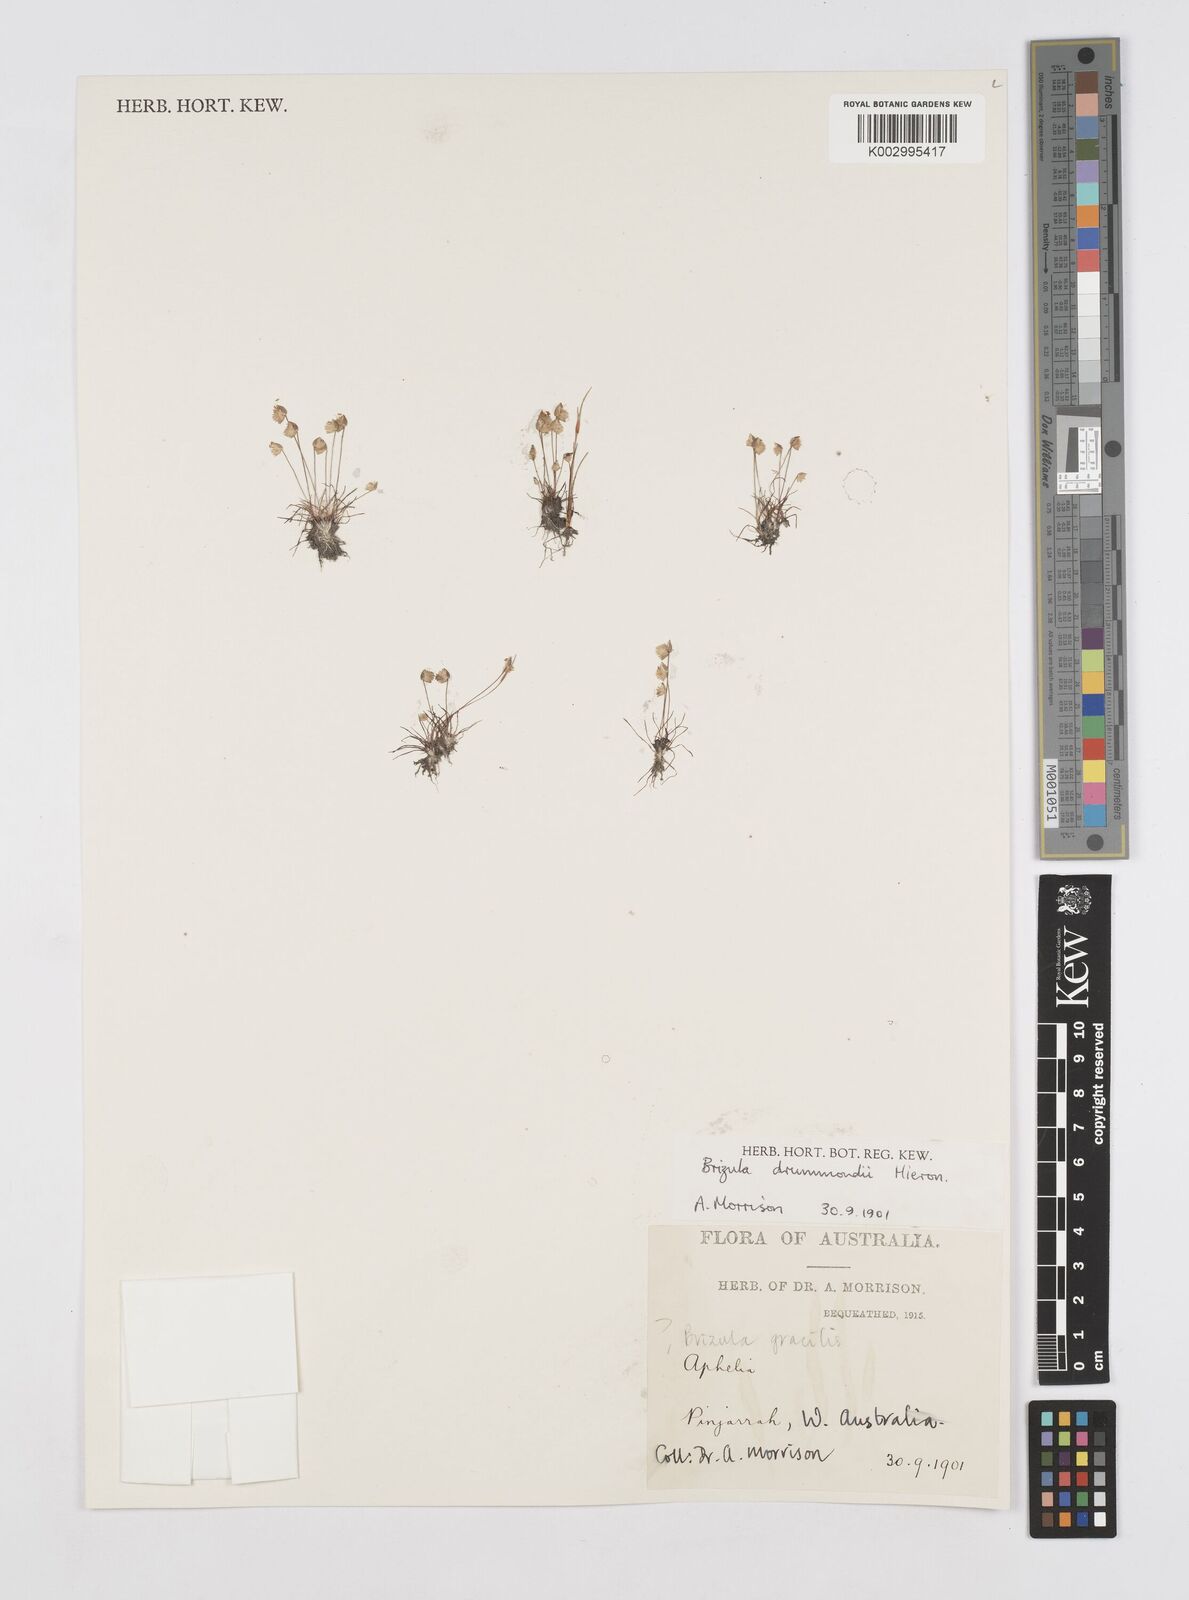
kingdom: Plantae
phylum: Tracheophyta
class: Liliopsida
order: Poales
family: Restionaceae
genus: Aphelia
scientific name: Aphelia drummondii
